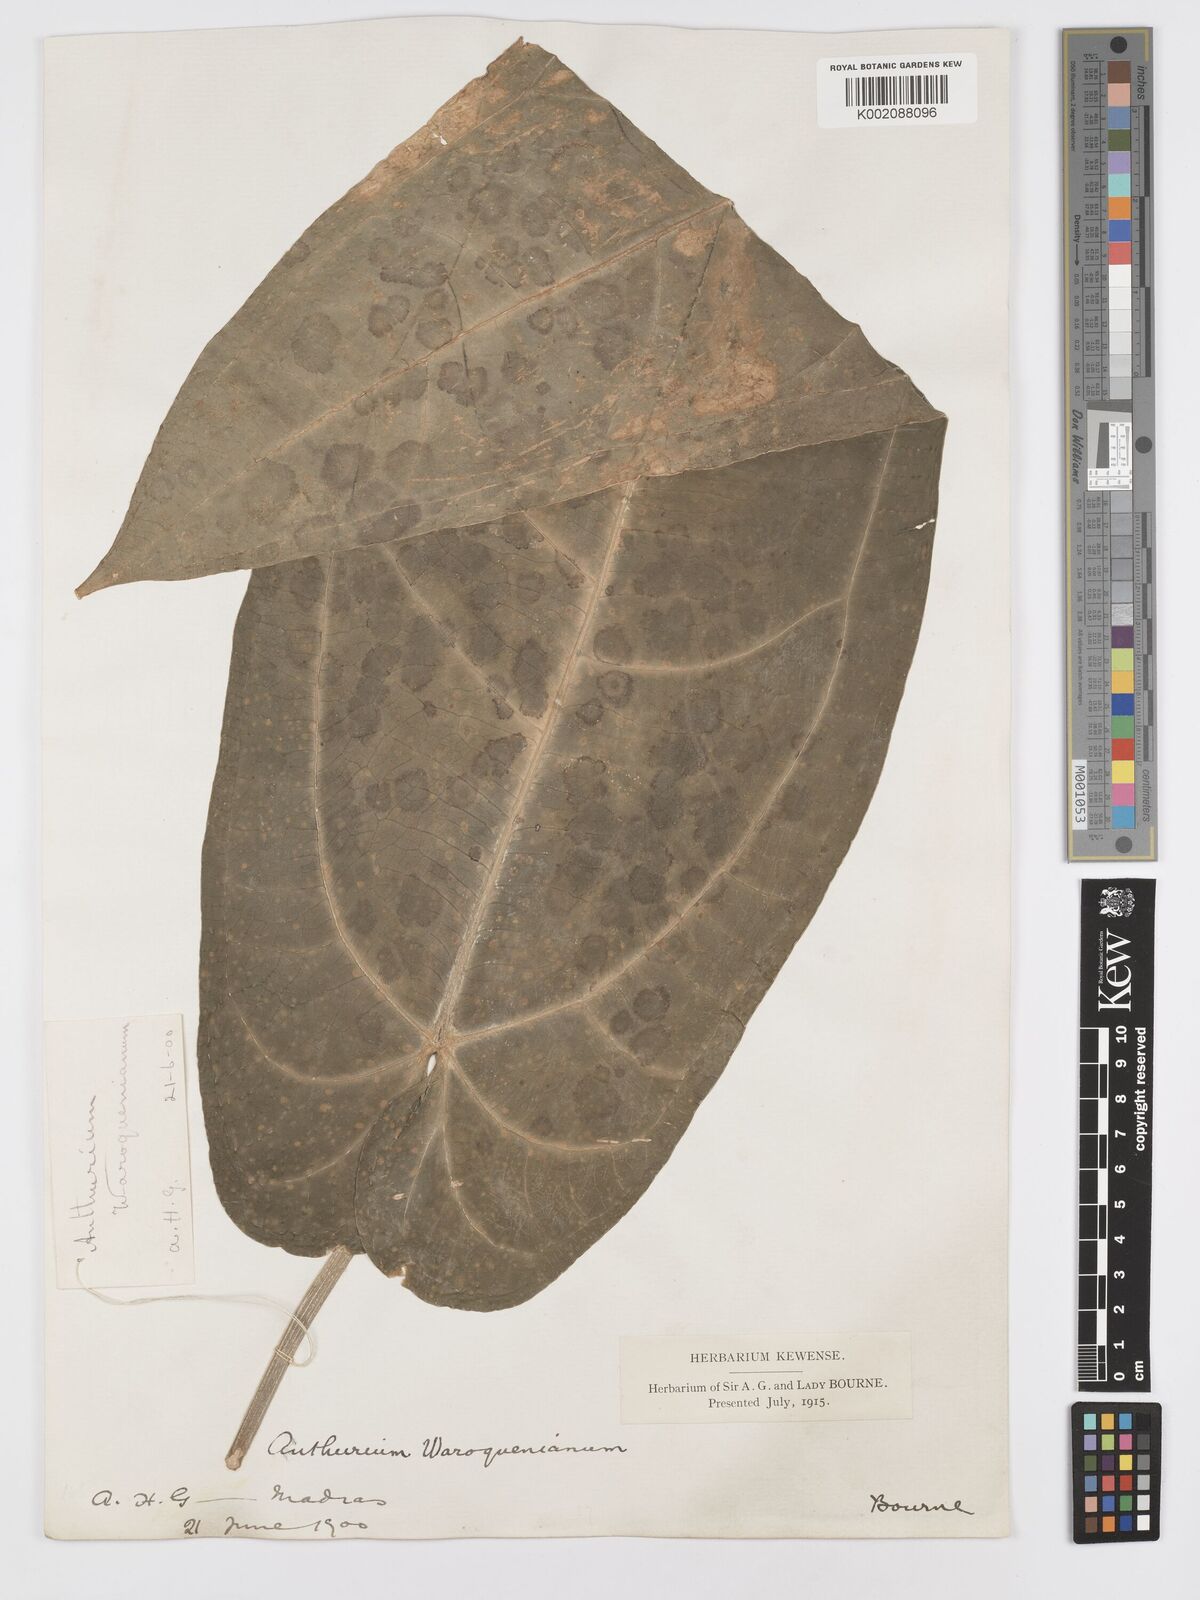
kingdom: Plantae
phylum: Tracheophyta
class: Liliopsida
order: Alismatales
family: Araceae
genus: Anthurium
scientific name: Anthurium warocqueanum
